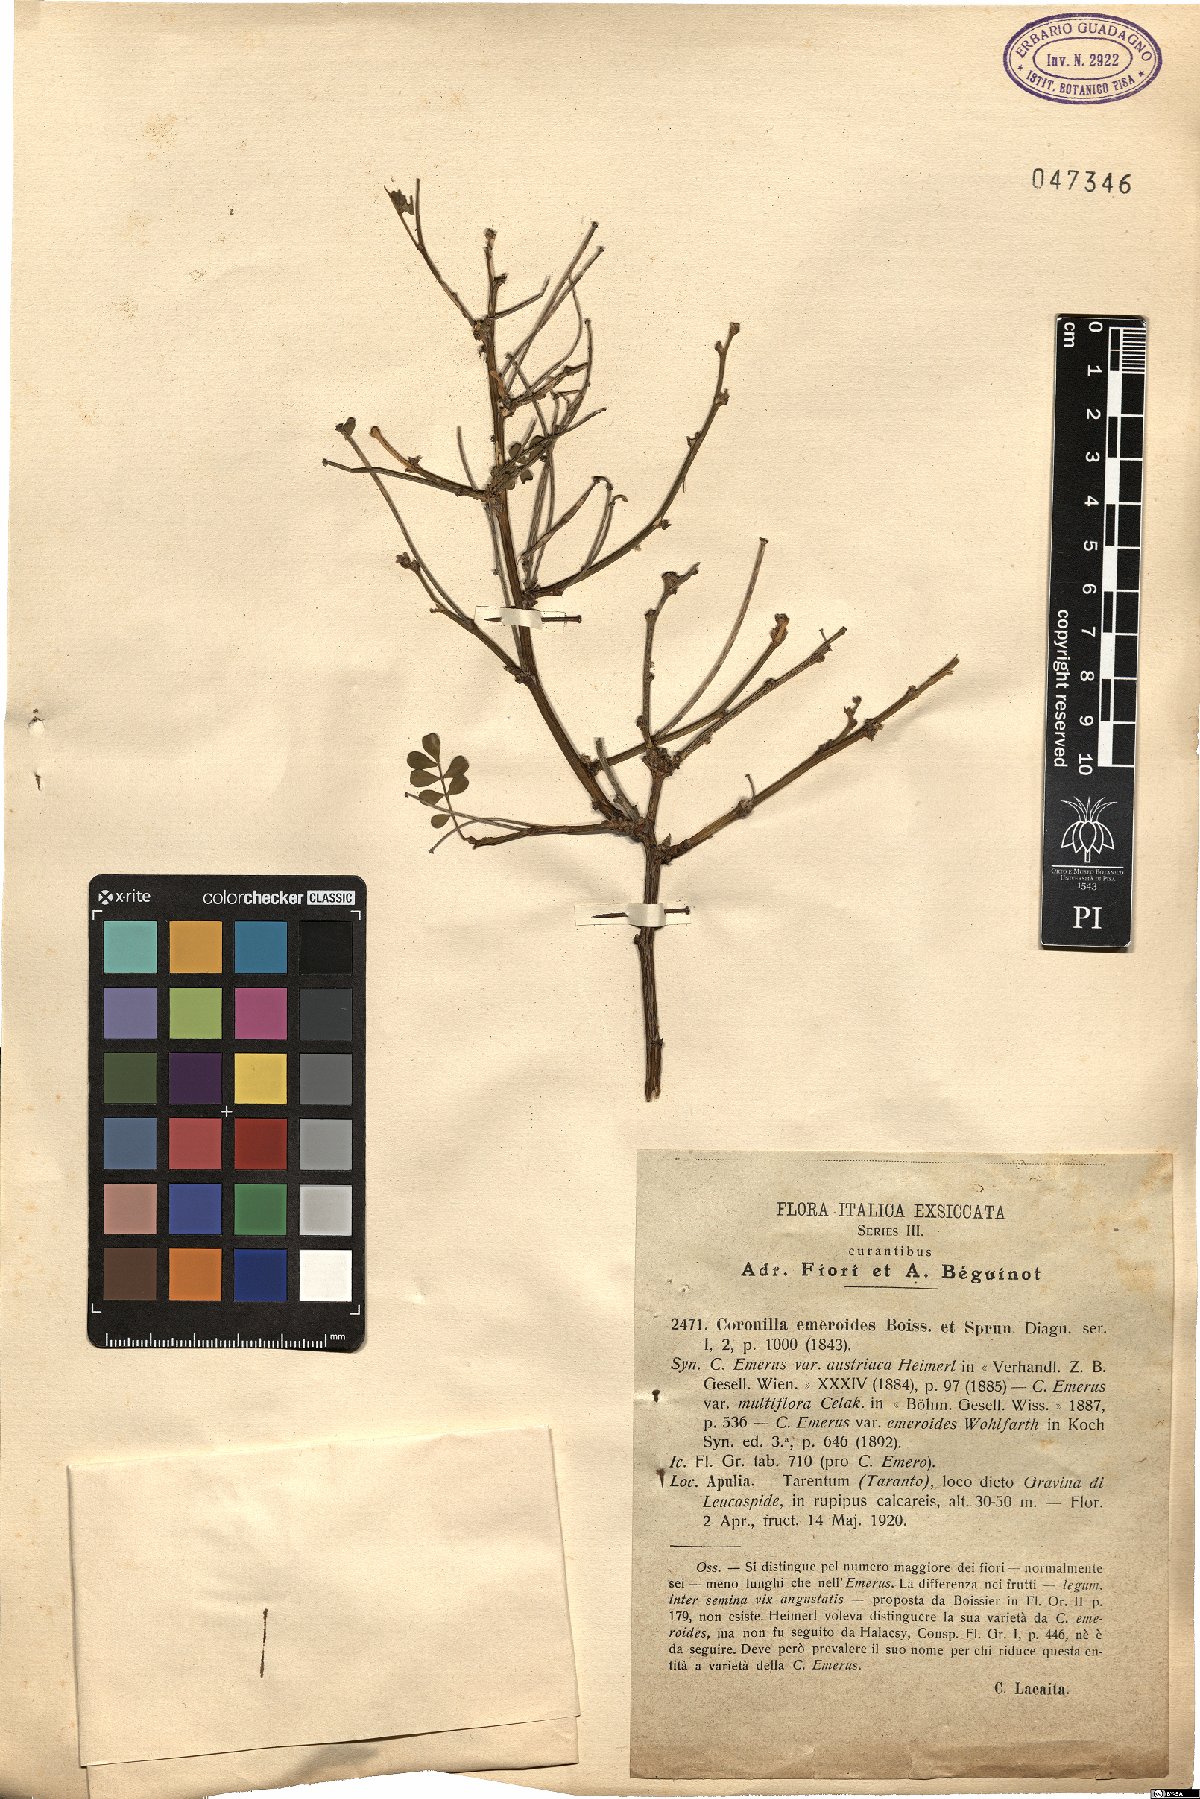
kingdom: Plantae
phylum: Tracheophyta
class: Magnoliopsida
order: Fabales
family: Fabaceae
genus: Hippocrepis
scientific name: Hippocrepis emerus
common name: Scorpion senna
